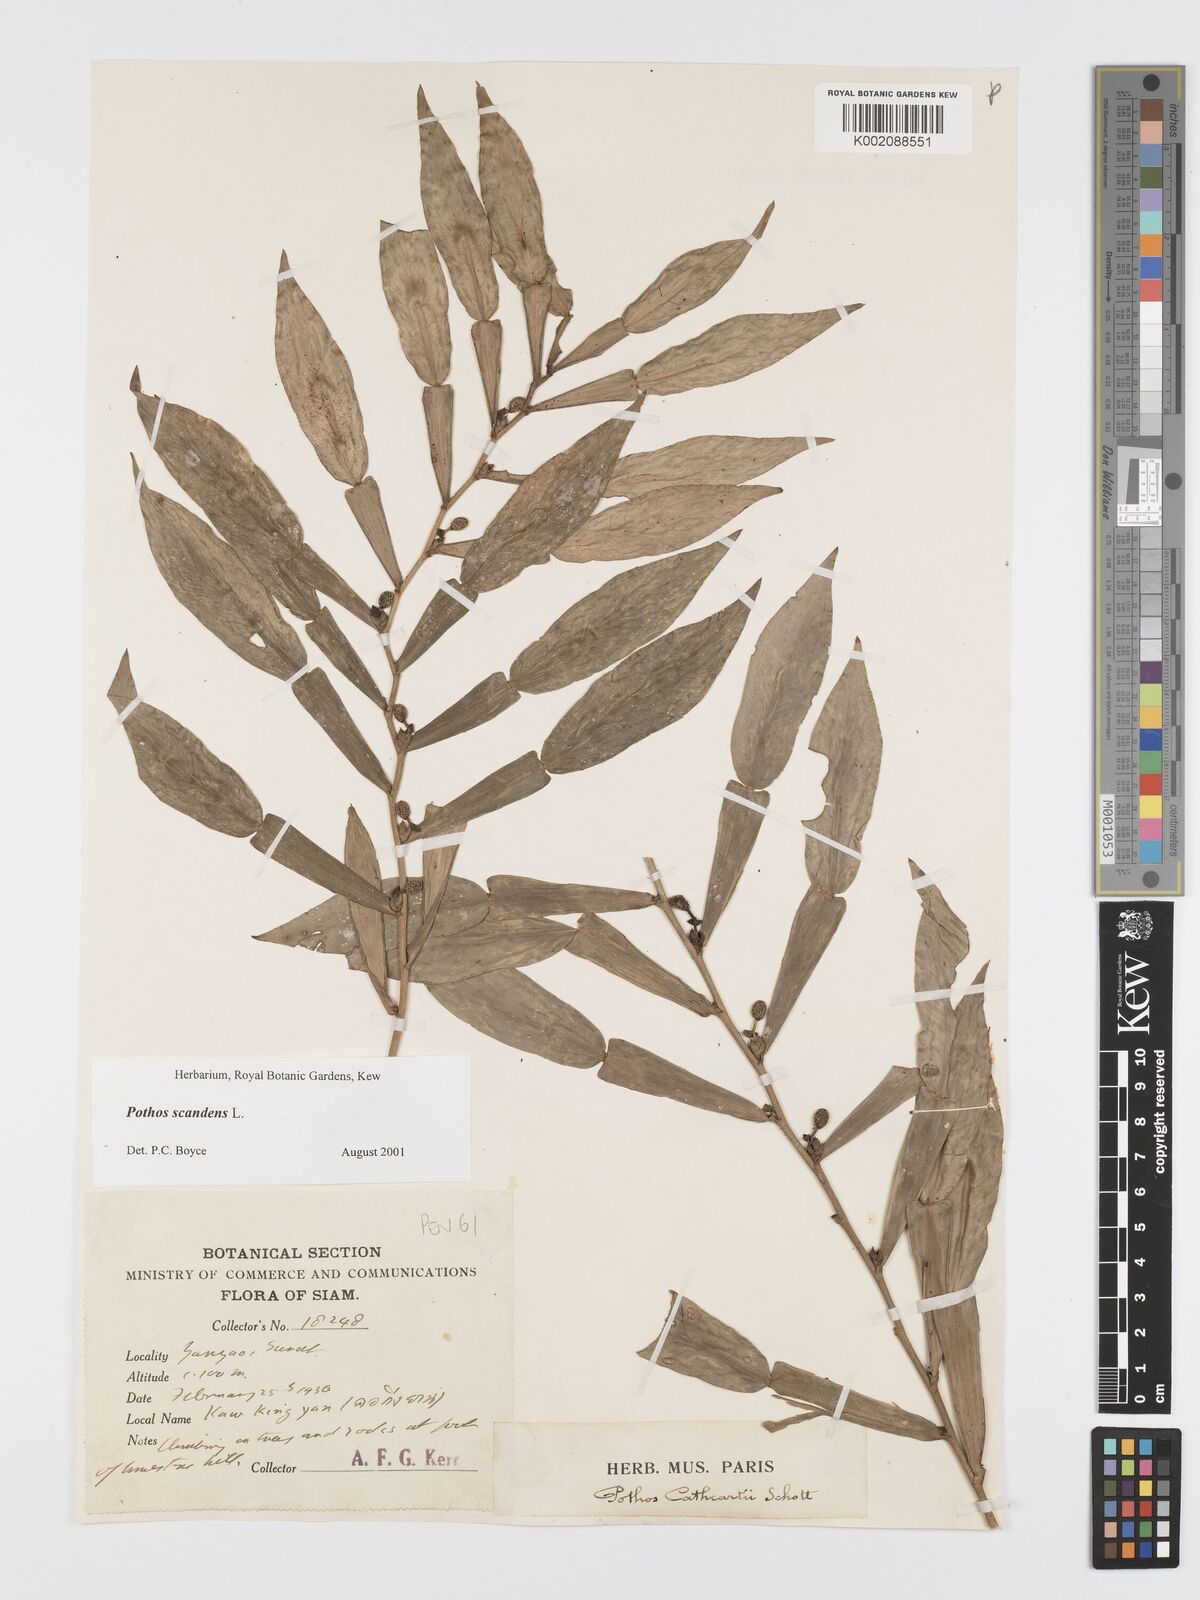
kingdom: Plantae
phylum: Tracheophyta
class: Liliopsida
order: Alismatales
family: Araceae
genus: Pothos
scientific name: Pothos scandens
